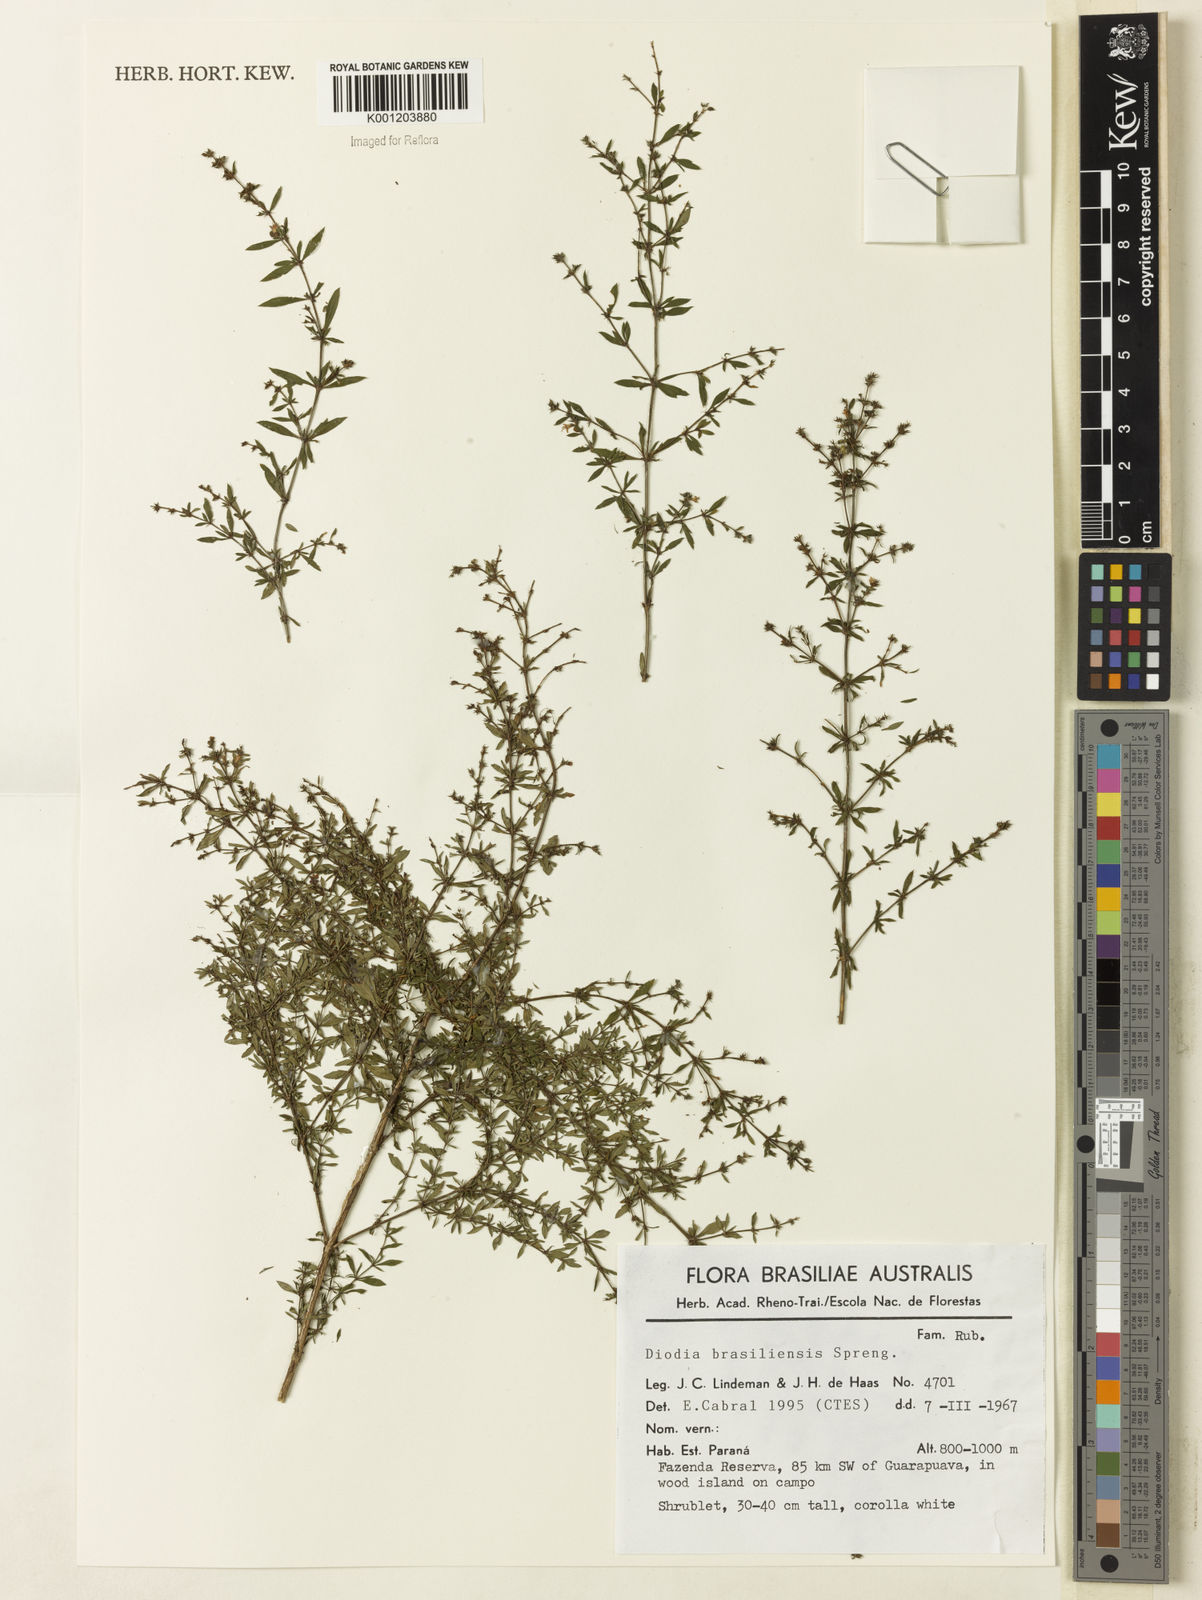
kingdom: Plantae
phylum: Tracheophyta
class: Magnoliopsida
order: Gentianales
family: Rubiaceae
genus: Galianthe
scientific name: Galianthe brasiliensis
